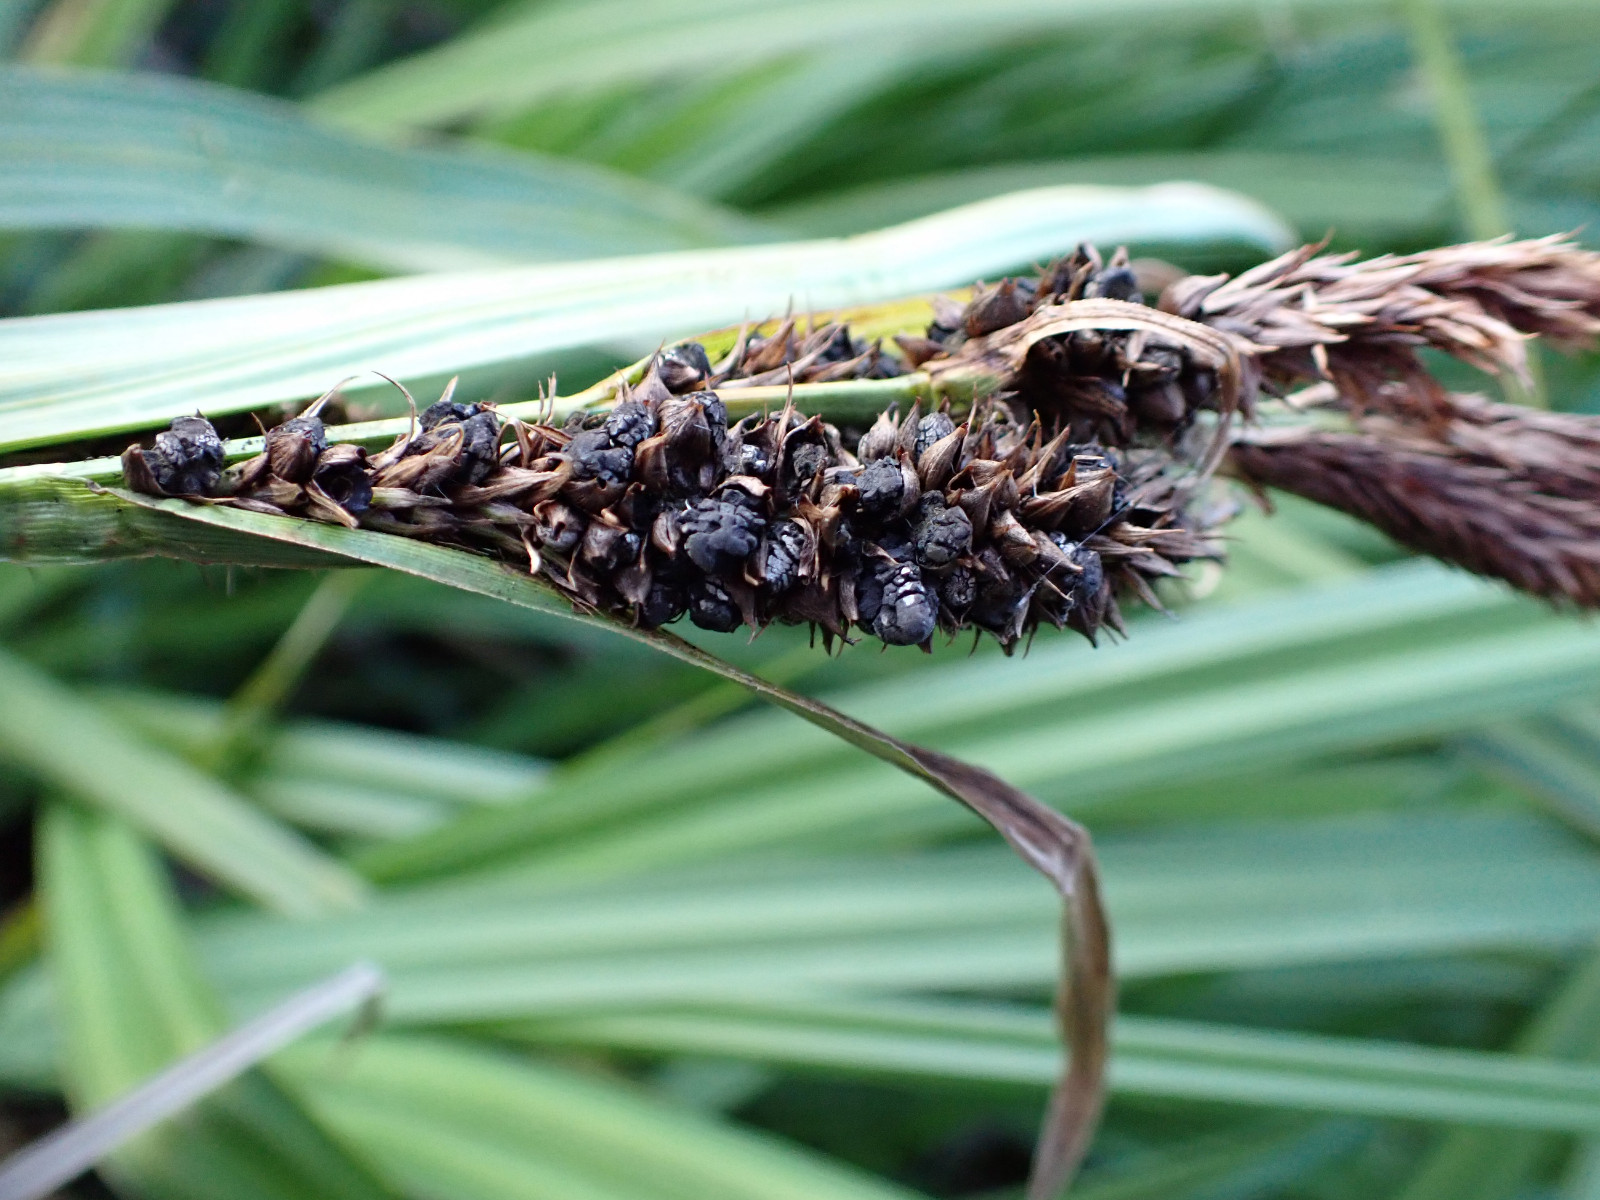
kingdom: Fungi
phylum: Basidiomycota
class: Ustilaginomycetes
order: Ustilaginales
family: Anthracoideaceae
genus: Anthracoidea
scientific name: Anthracoidea subinclusa
